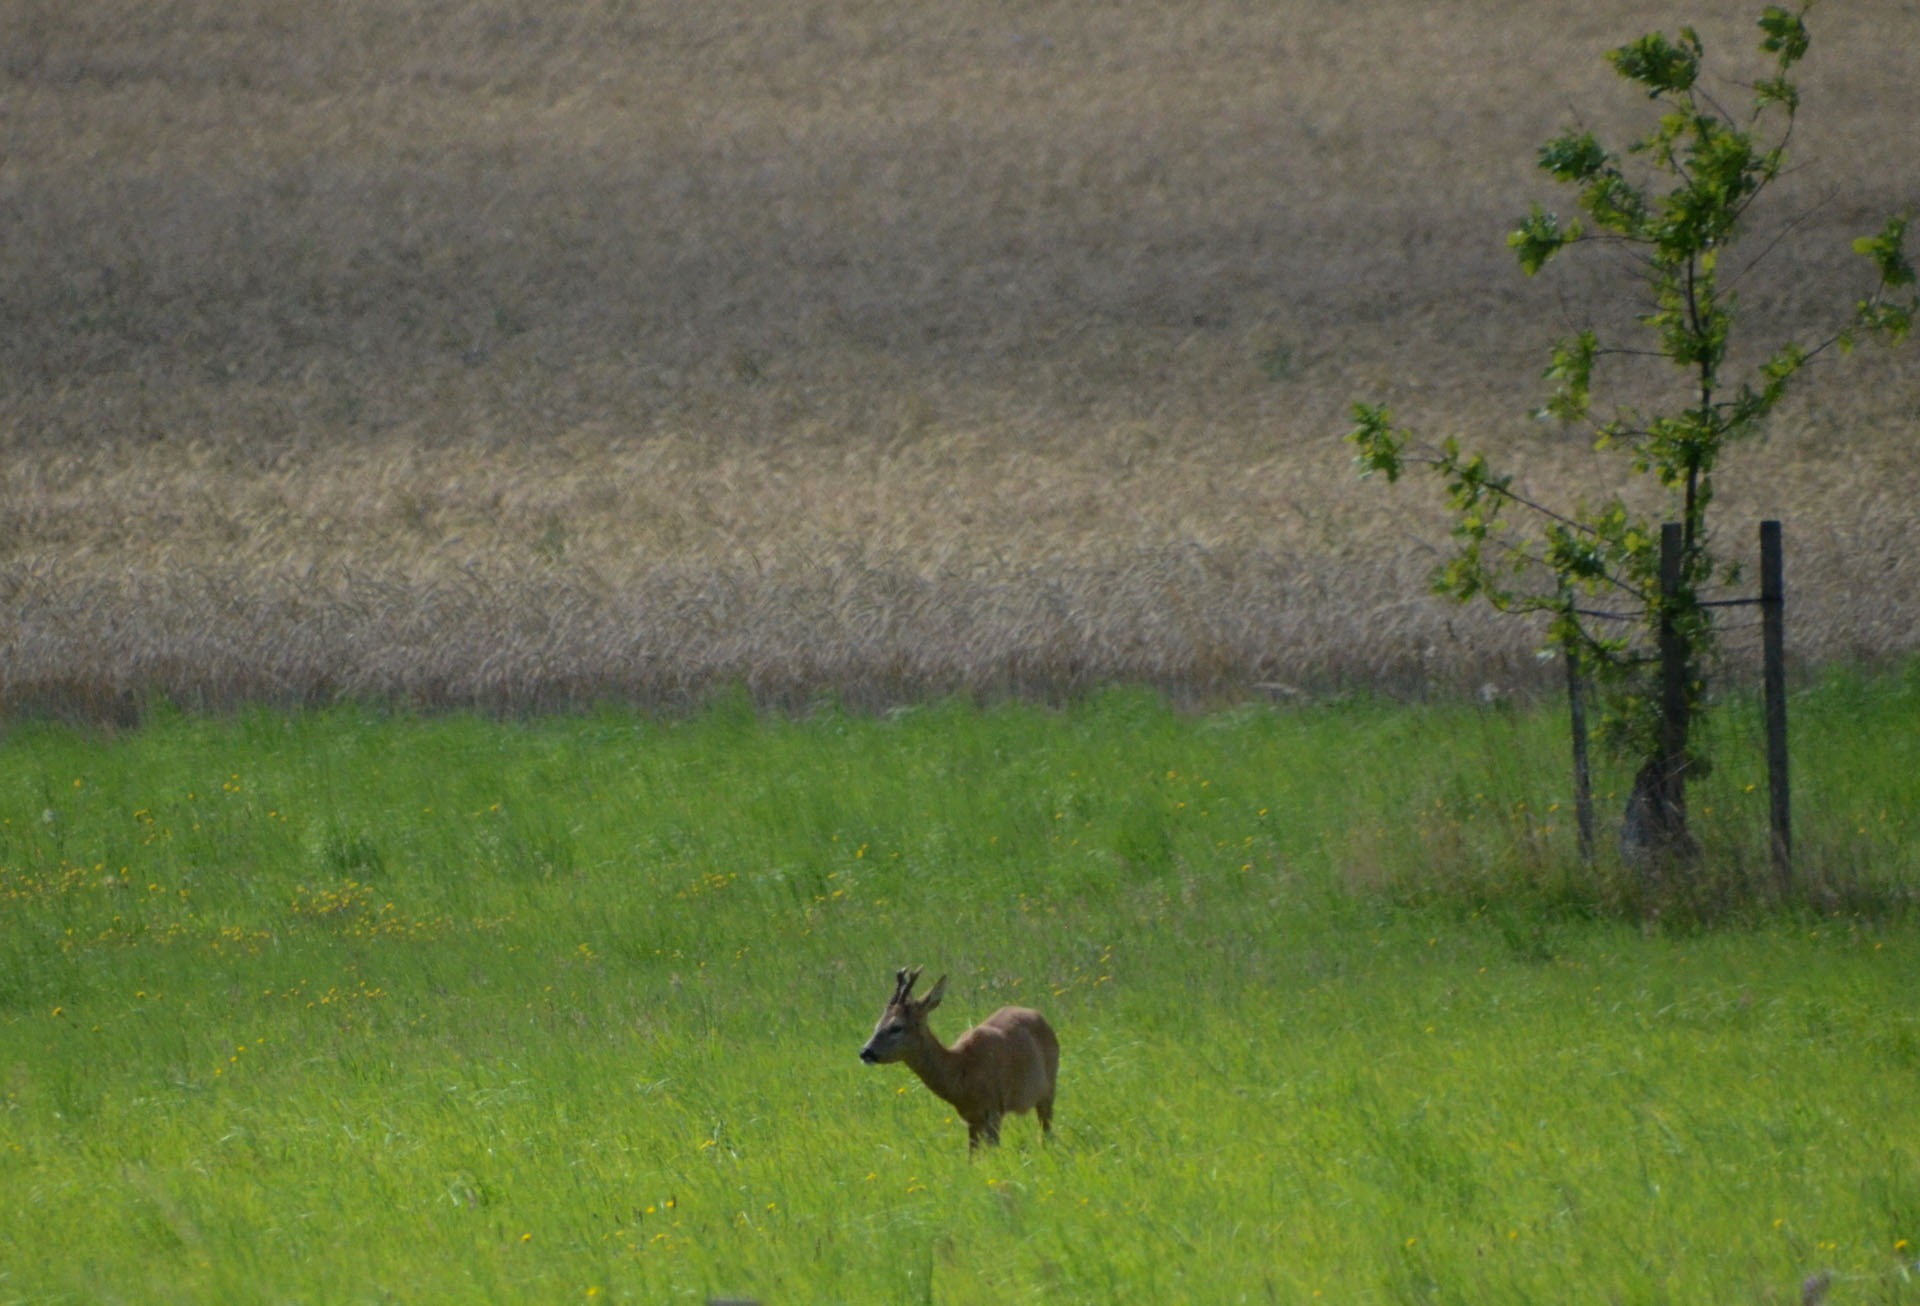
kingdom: Animalia
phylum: Chordata
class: Mammalia
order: Artiodactyla
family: Cervidae
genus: Capreolus
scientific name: Capreolus capreolus
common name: Rådyr
